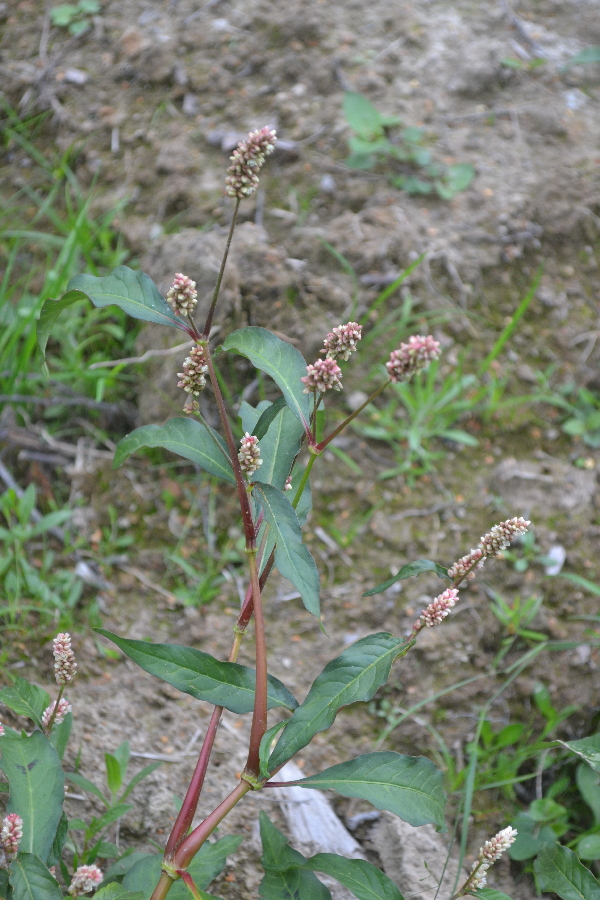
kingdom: Plantae
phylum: Tracheophyta
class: Magnoliopsida
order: Caryophyllales
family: Polygonaceae
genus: Persicaria
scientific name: Persicaria
